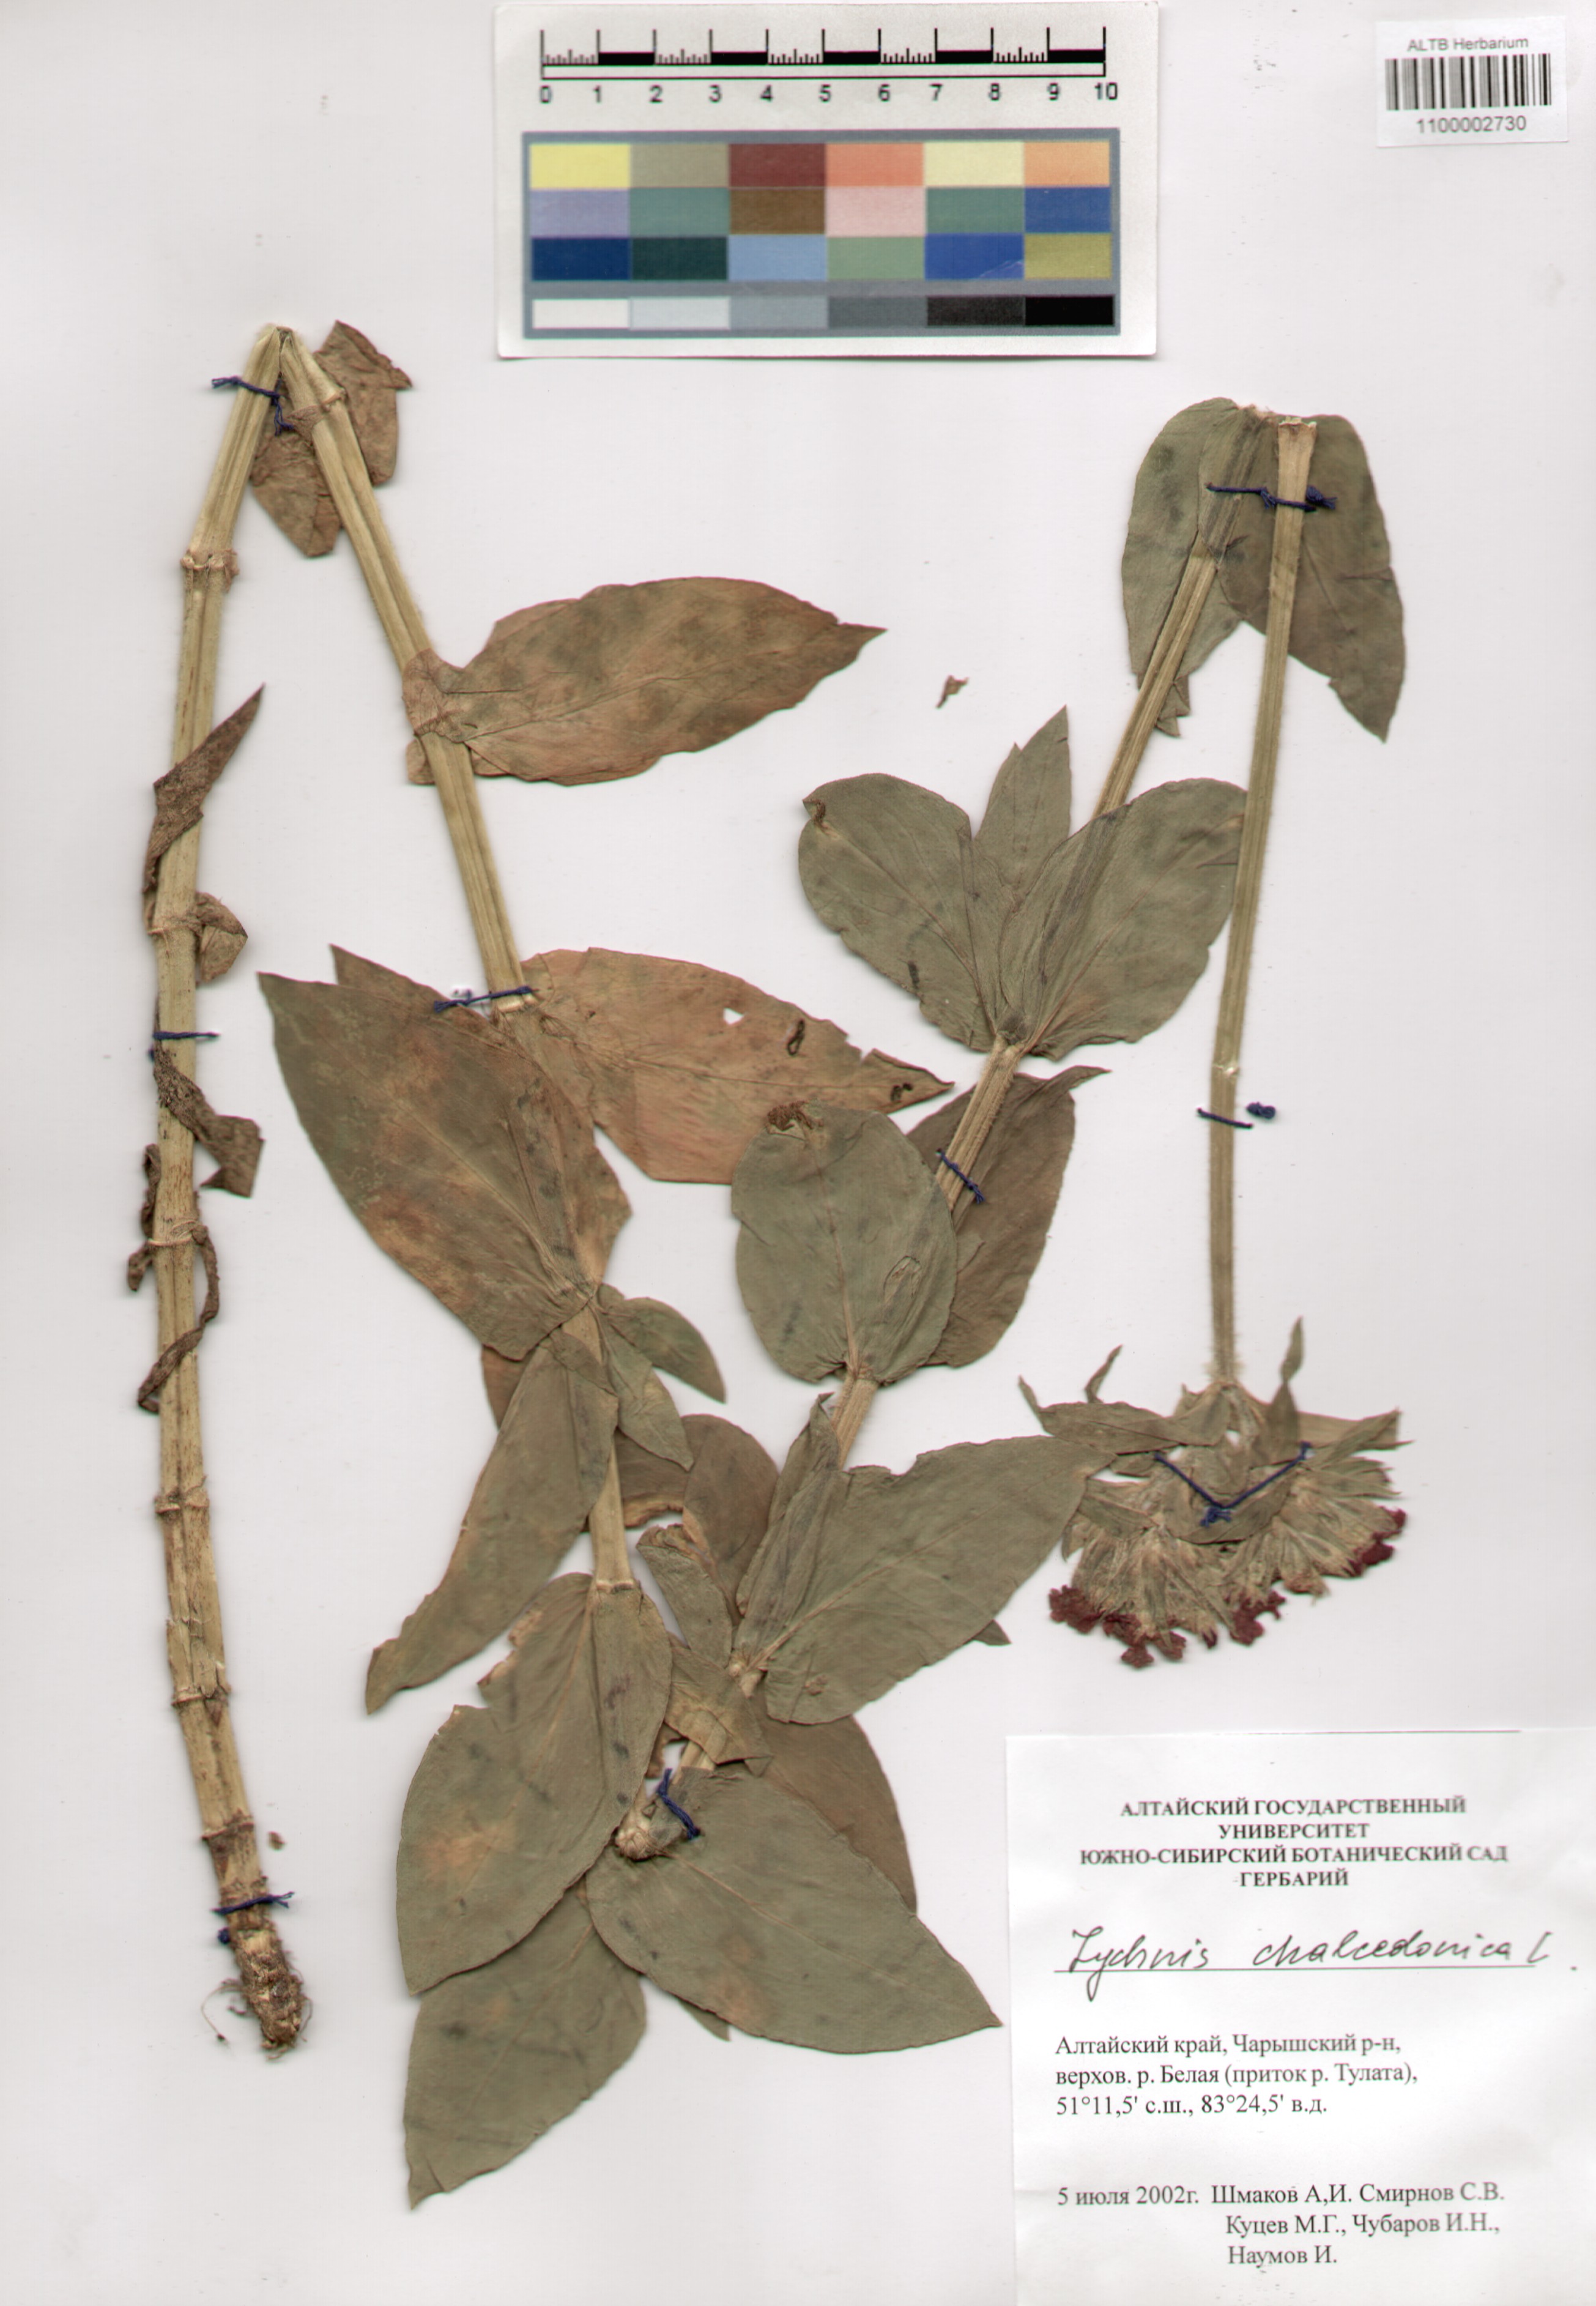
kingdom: Plantae
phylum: Tracheophyta
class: Magnoliopsida
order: Caryophyllales
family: Caryophyllaceae
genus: Silene
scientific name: Silene chalcedonica
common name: Maltese-cross
